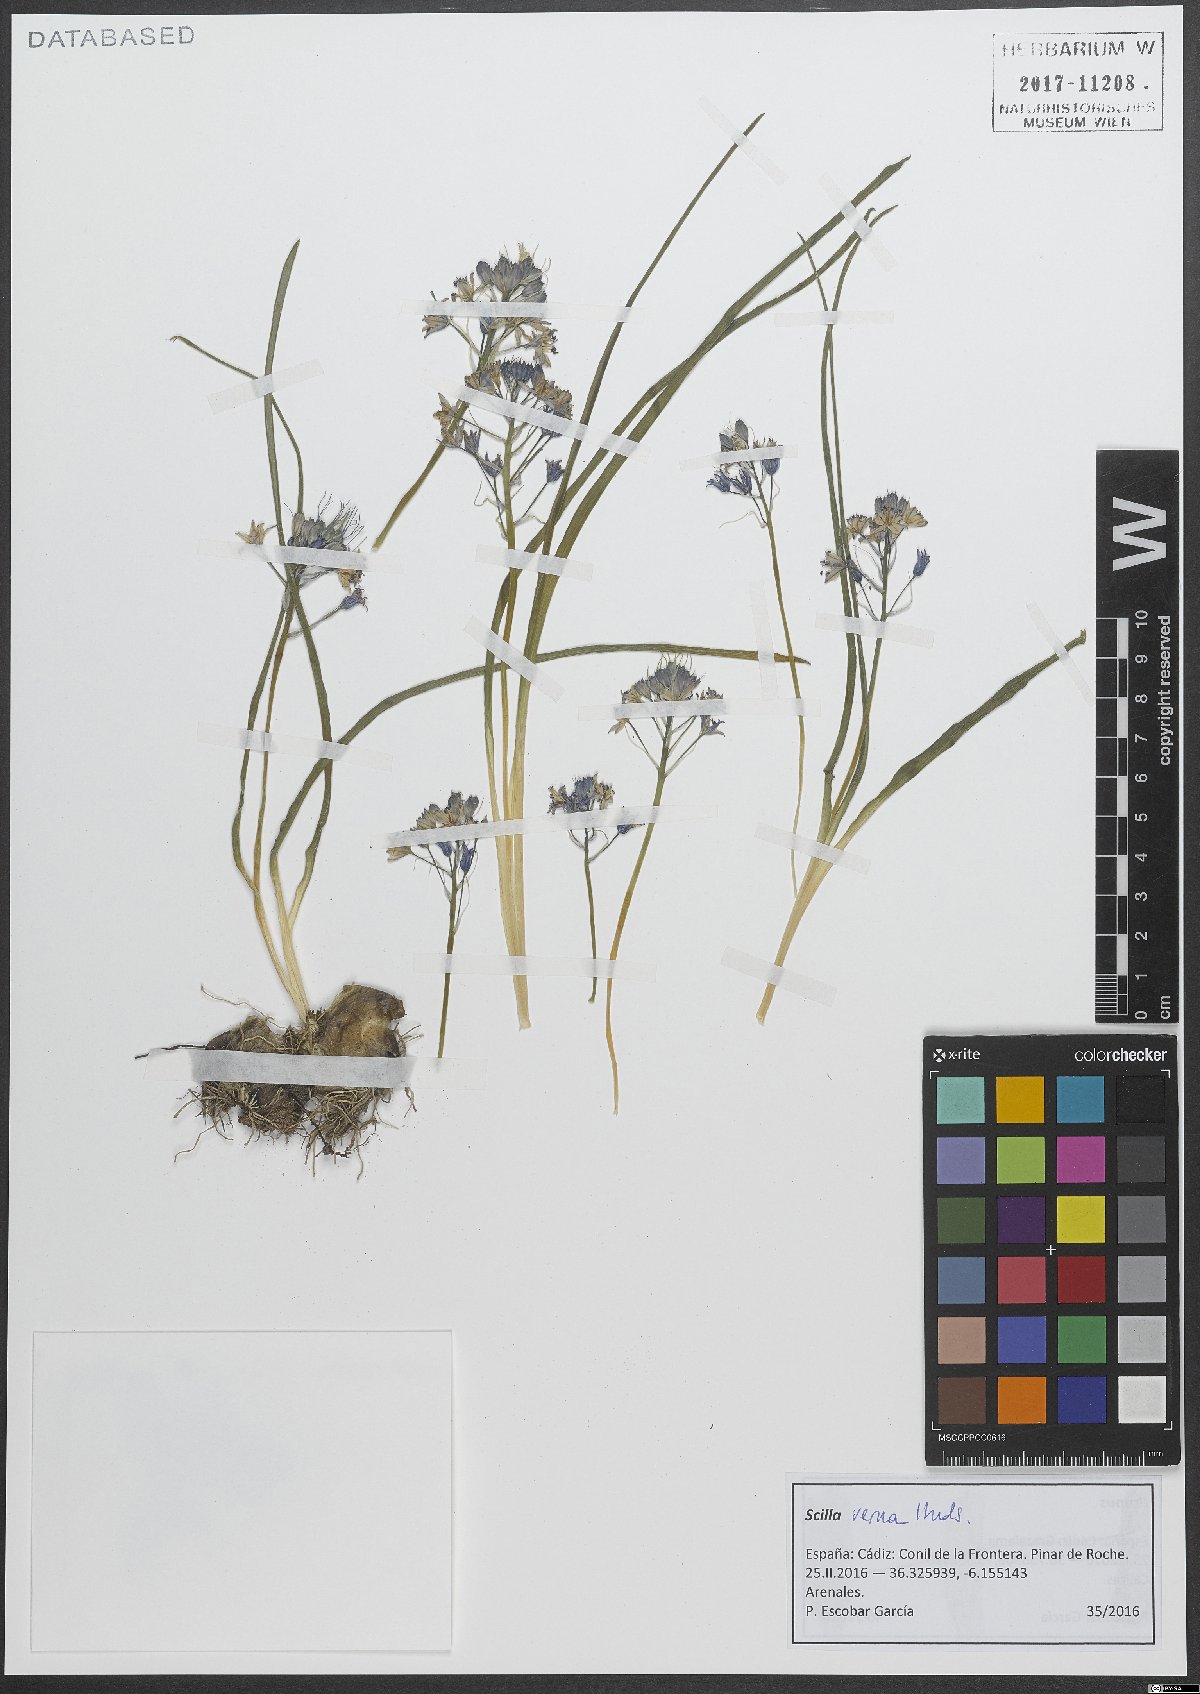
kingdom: Plantae
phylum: Tracheophyta
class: Liliopsida
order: Asparagales
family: Asparagaceae
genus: Scilla
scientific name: Scilla verna
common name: Spring squill
